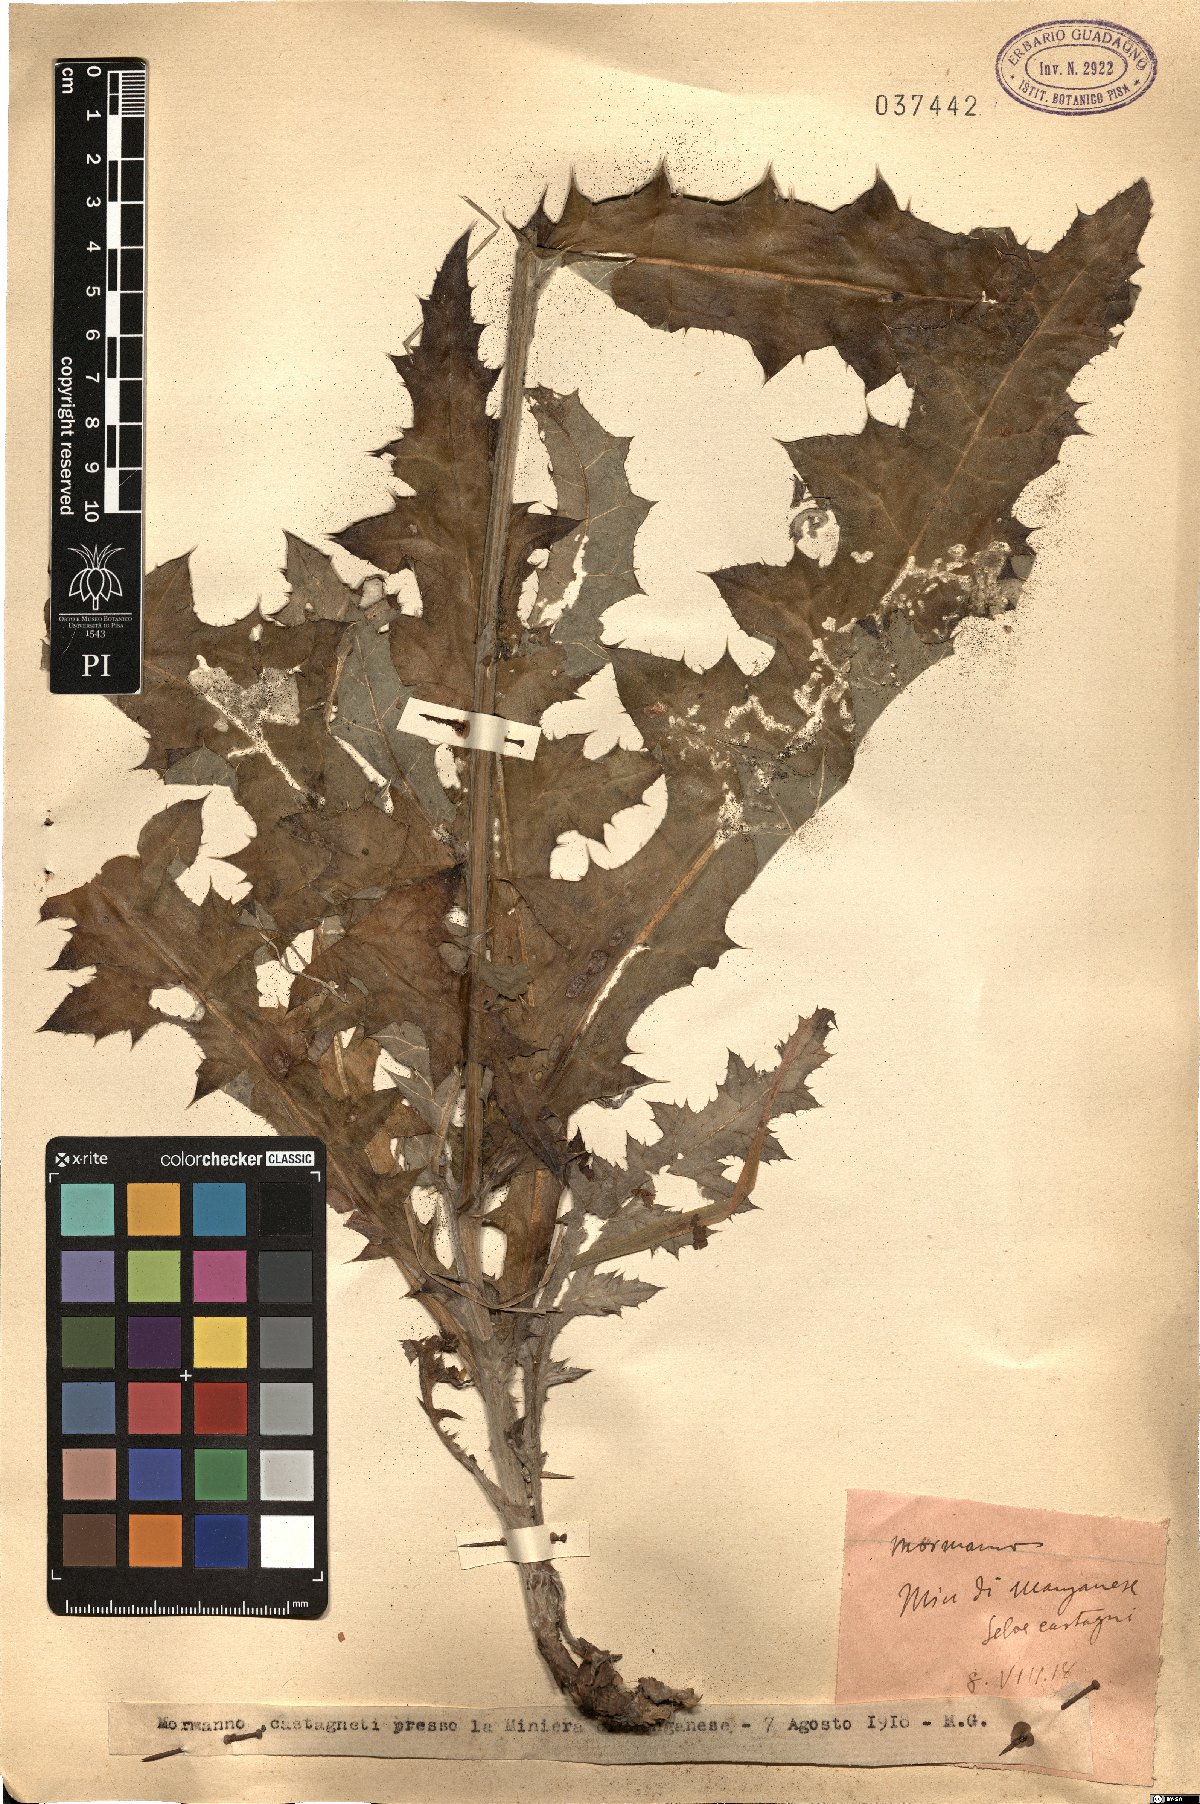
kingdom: Plantae
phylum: Tracheophyta
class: Magnoliopsida
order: Asterales
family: Asteraceae
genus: Echinops
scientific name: Echinops
